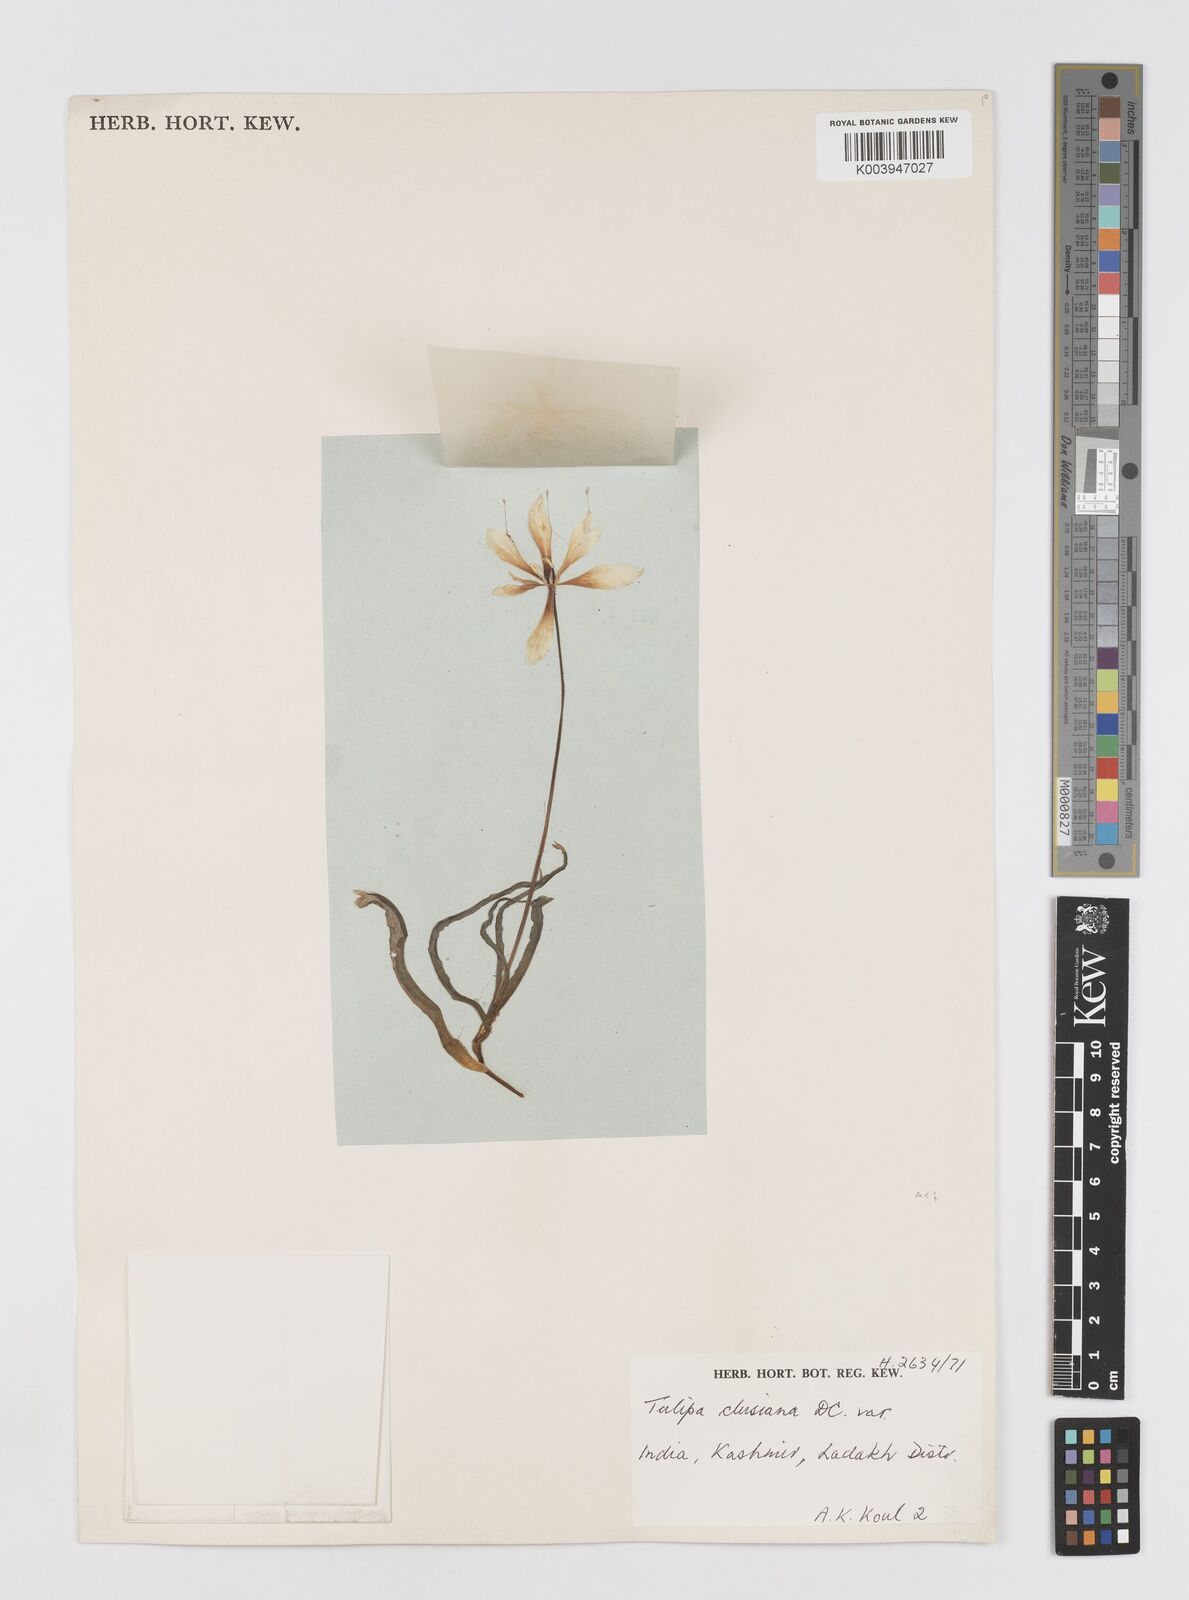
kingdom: Plantae
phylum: Tracheophyta
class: Liliopsida
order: Liliales
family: Liliaceae
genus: Tulipa
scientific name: Tulipa clusiana
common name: Lady tulip
